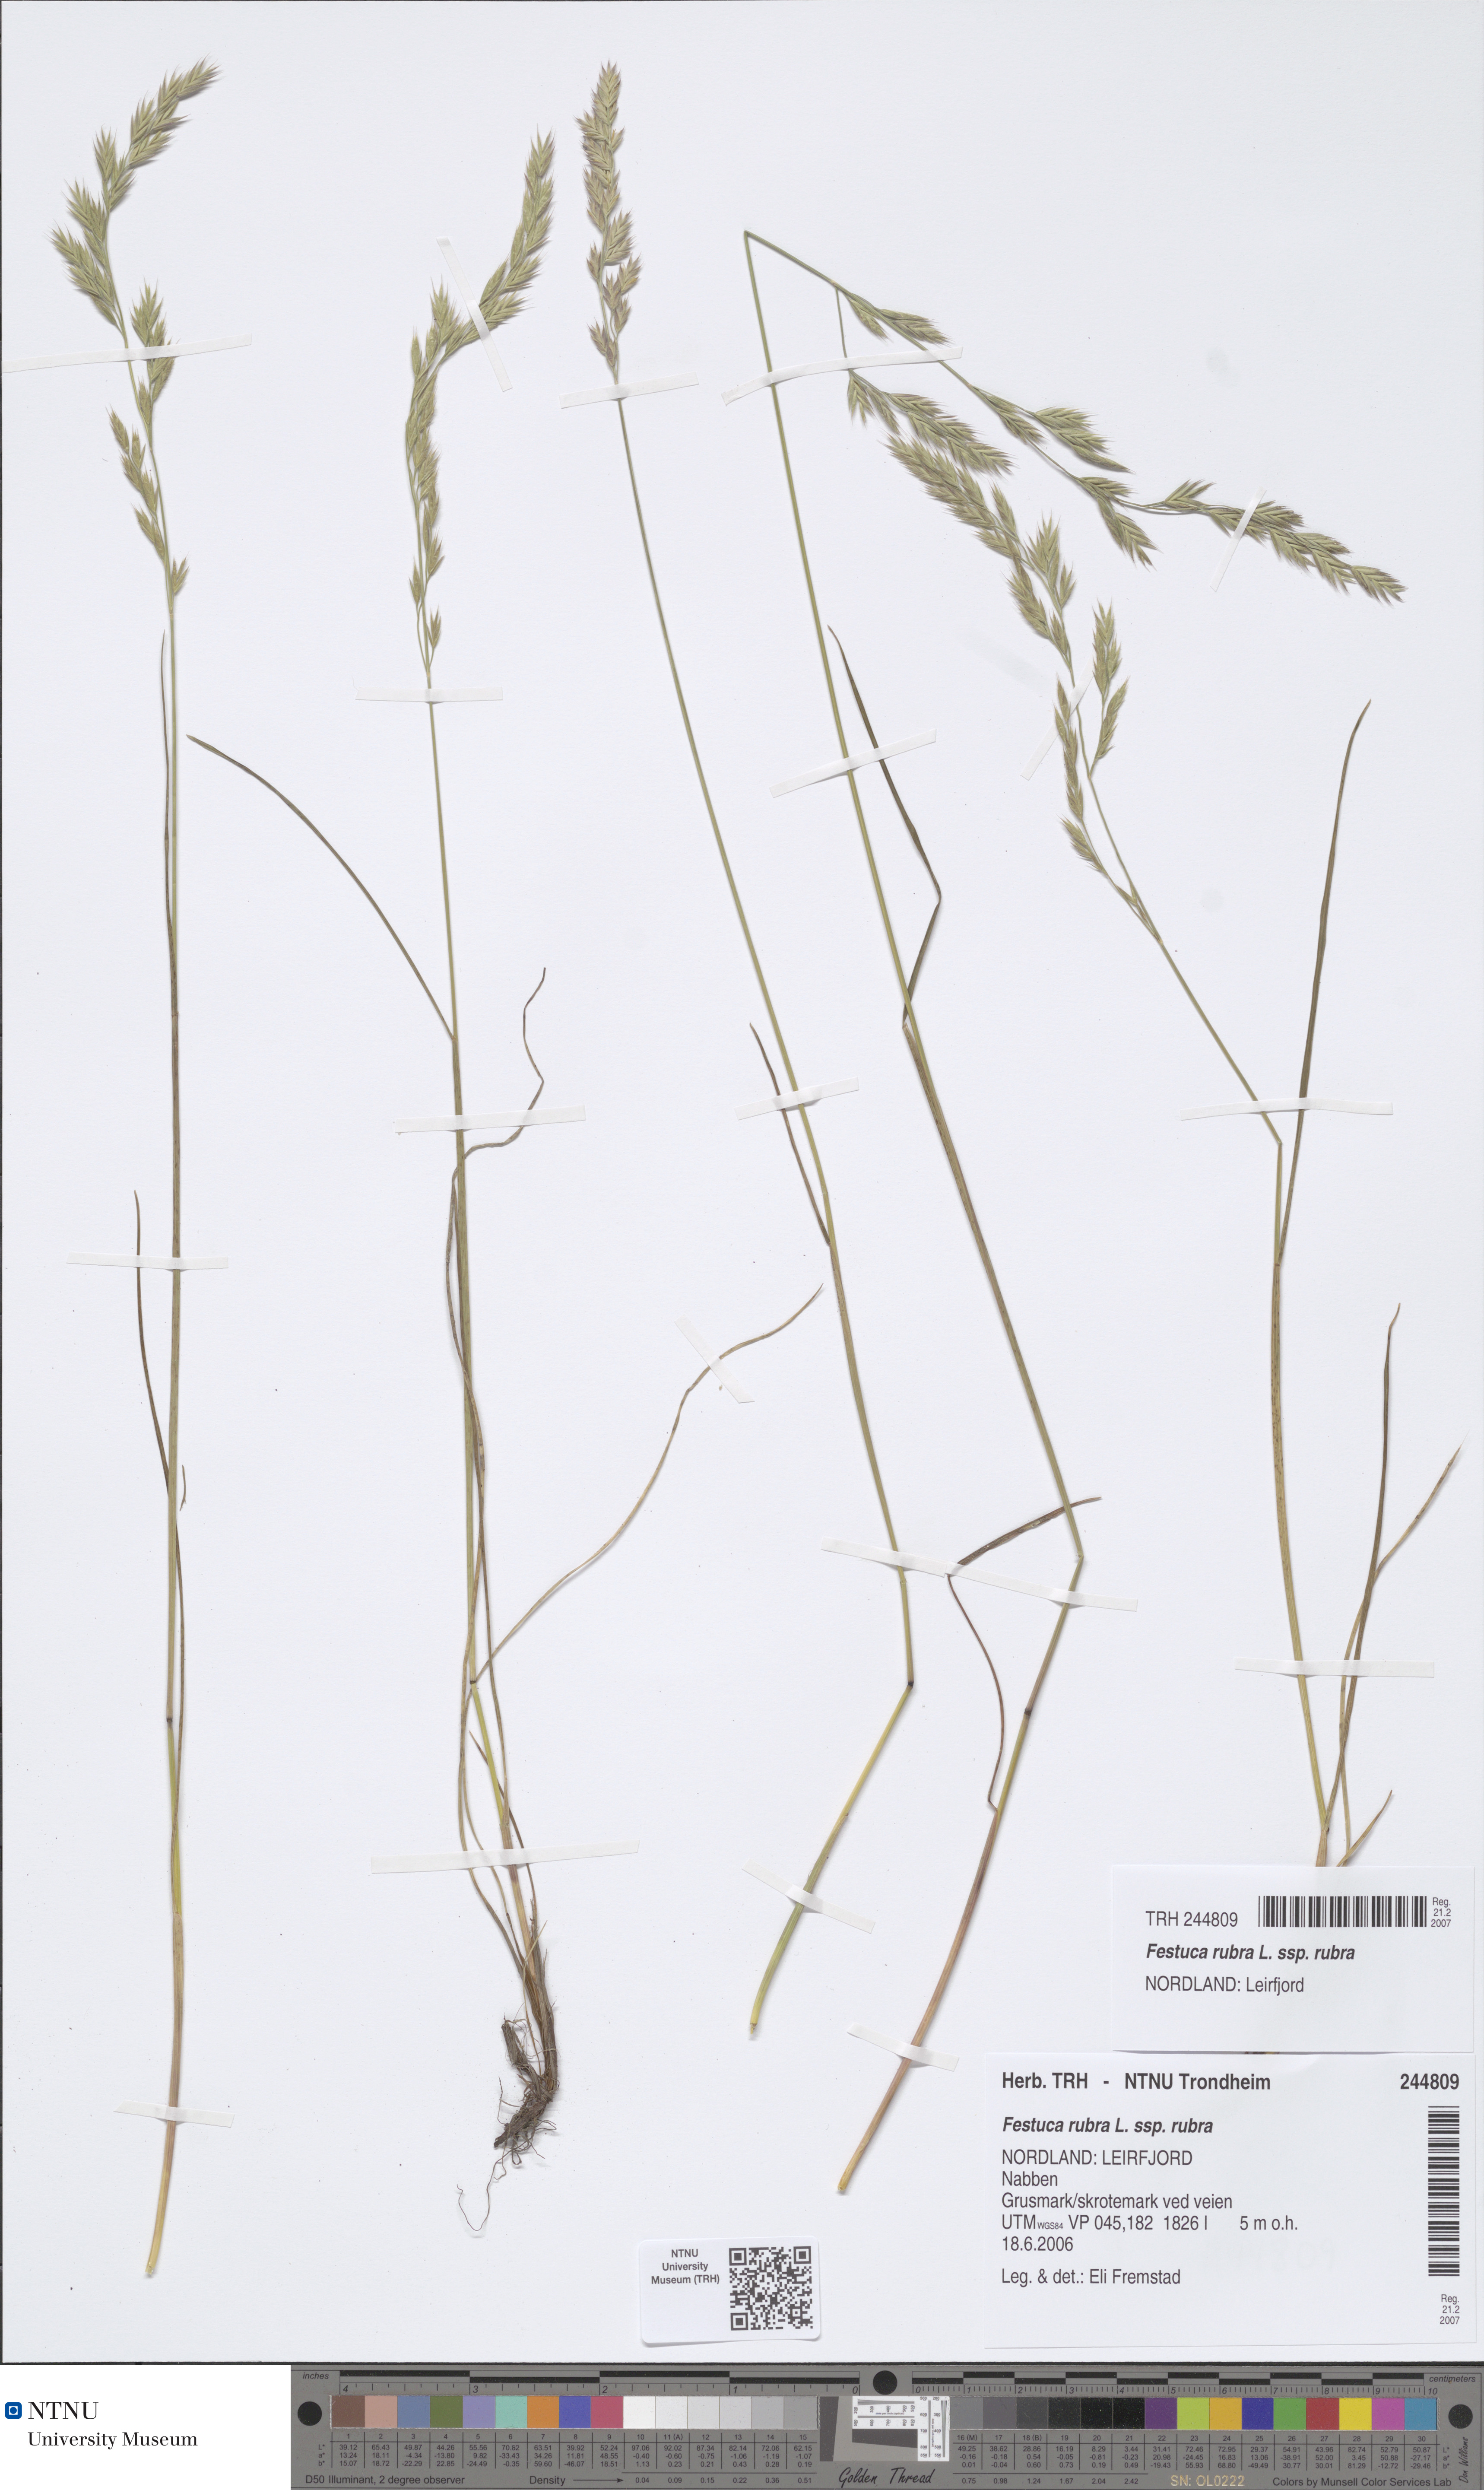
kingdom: Plantae
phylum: Tracheophyta
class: Liliopsida
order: Poales
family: Poaceae
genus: Festuca
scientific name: Festuca rubra
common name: Red fescue
